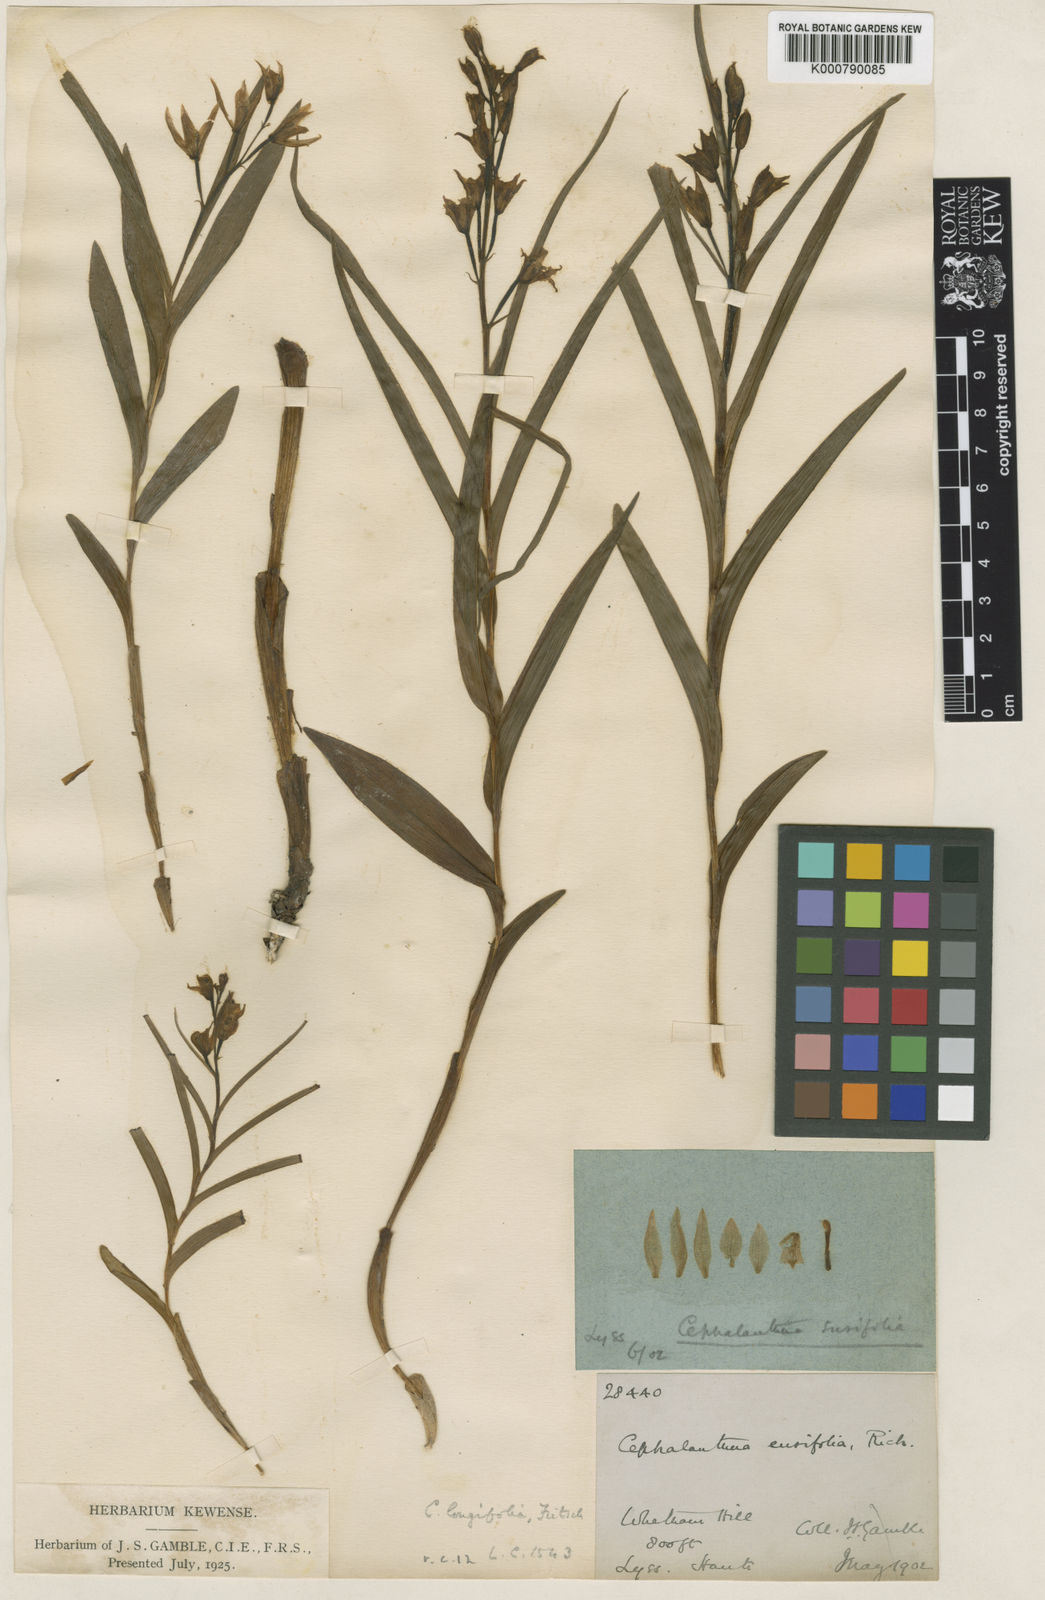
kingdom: Plantae
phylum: Tracheophyta
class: Liliopsida
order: Asparagales
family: Orchidaceae
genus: Cephalanthera
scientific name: Cephalanthera longifolia
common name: Narrow-leaved helleborine
